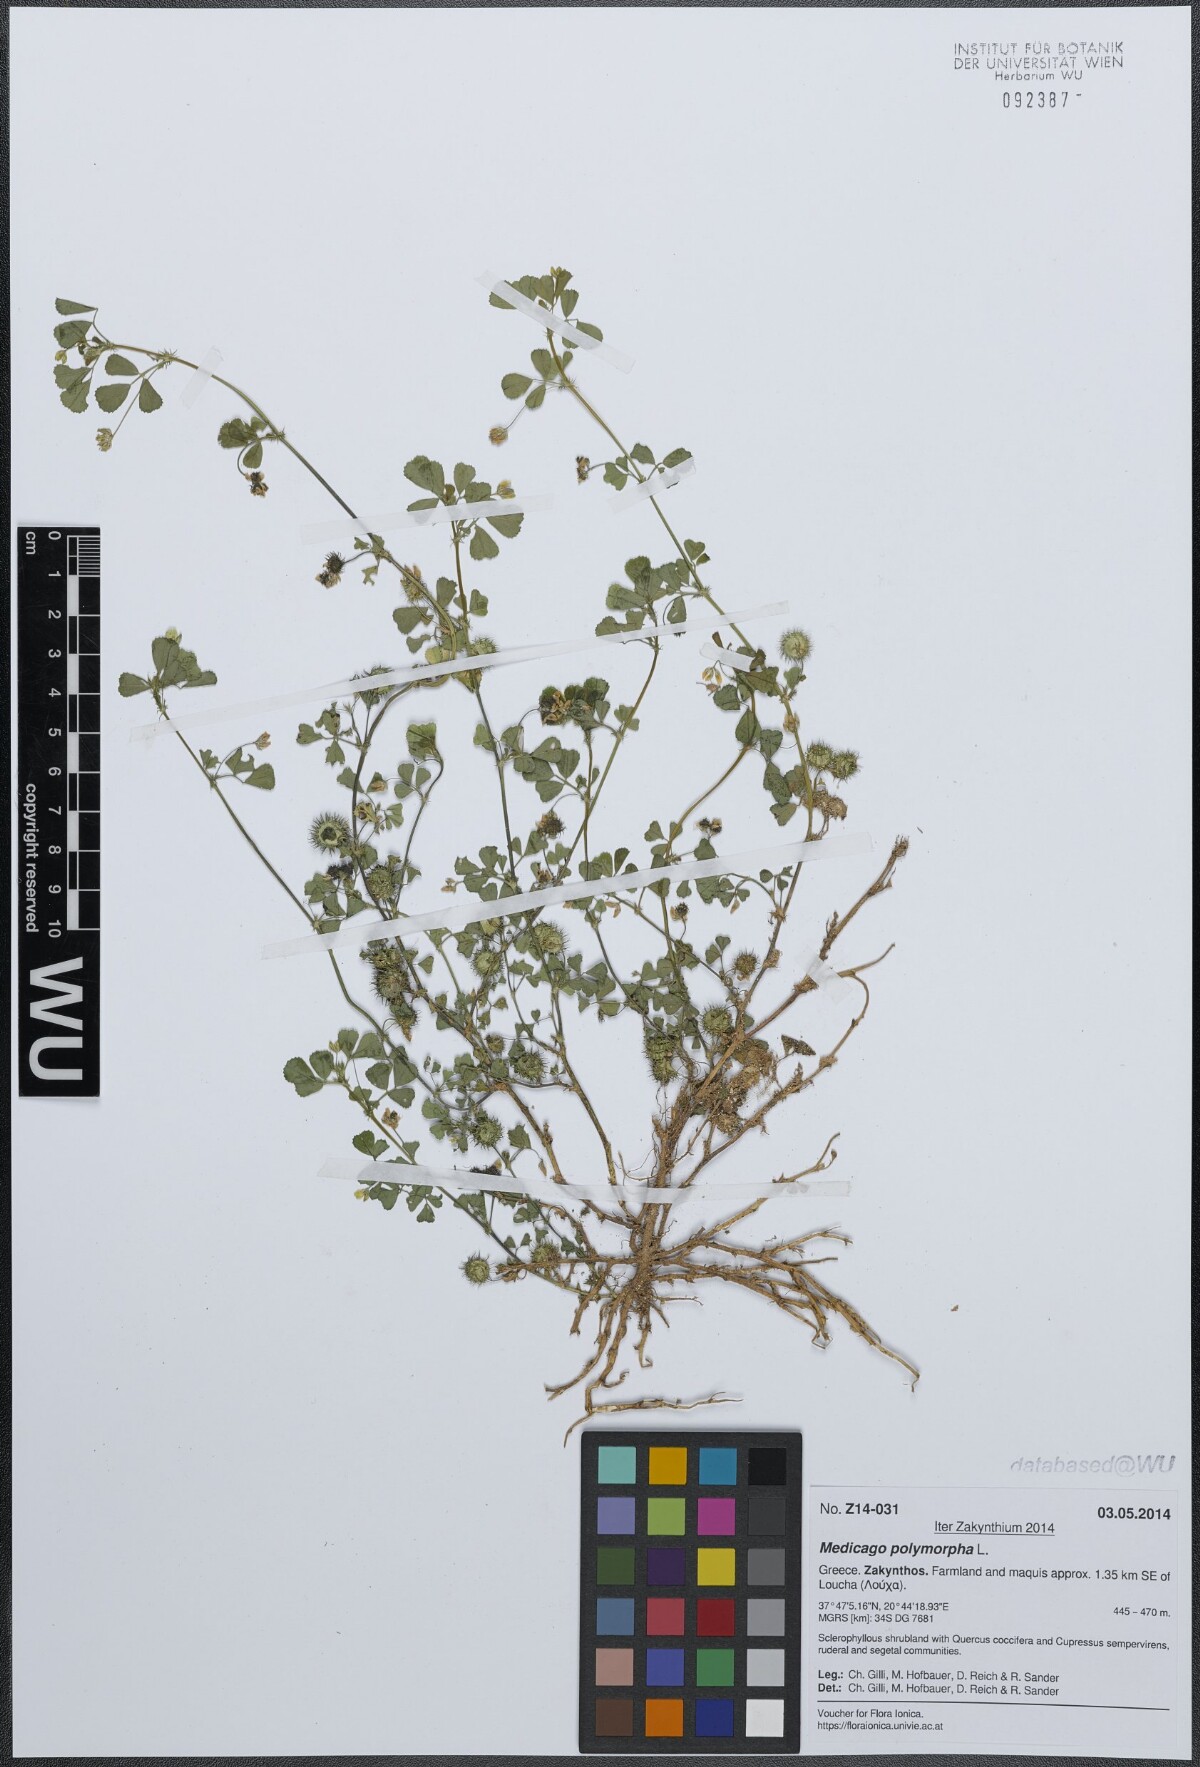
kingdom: Plantae
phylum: Tracheophyta
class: Magnoliopsida
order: Fabales
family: Fabaceae
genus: Medicago
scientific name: Medicago polymorpha
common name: Burclover
